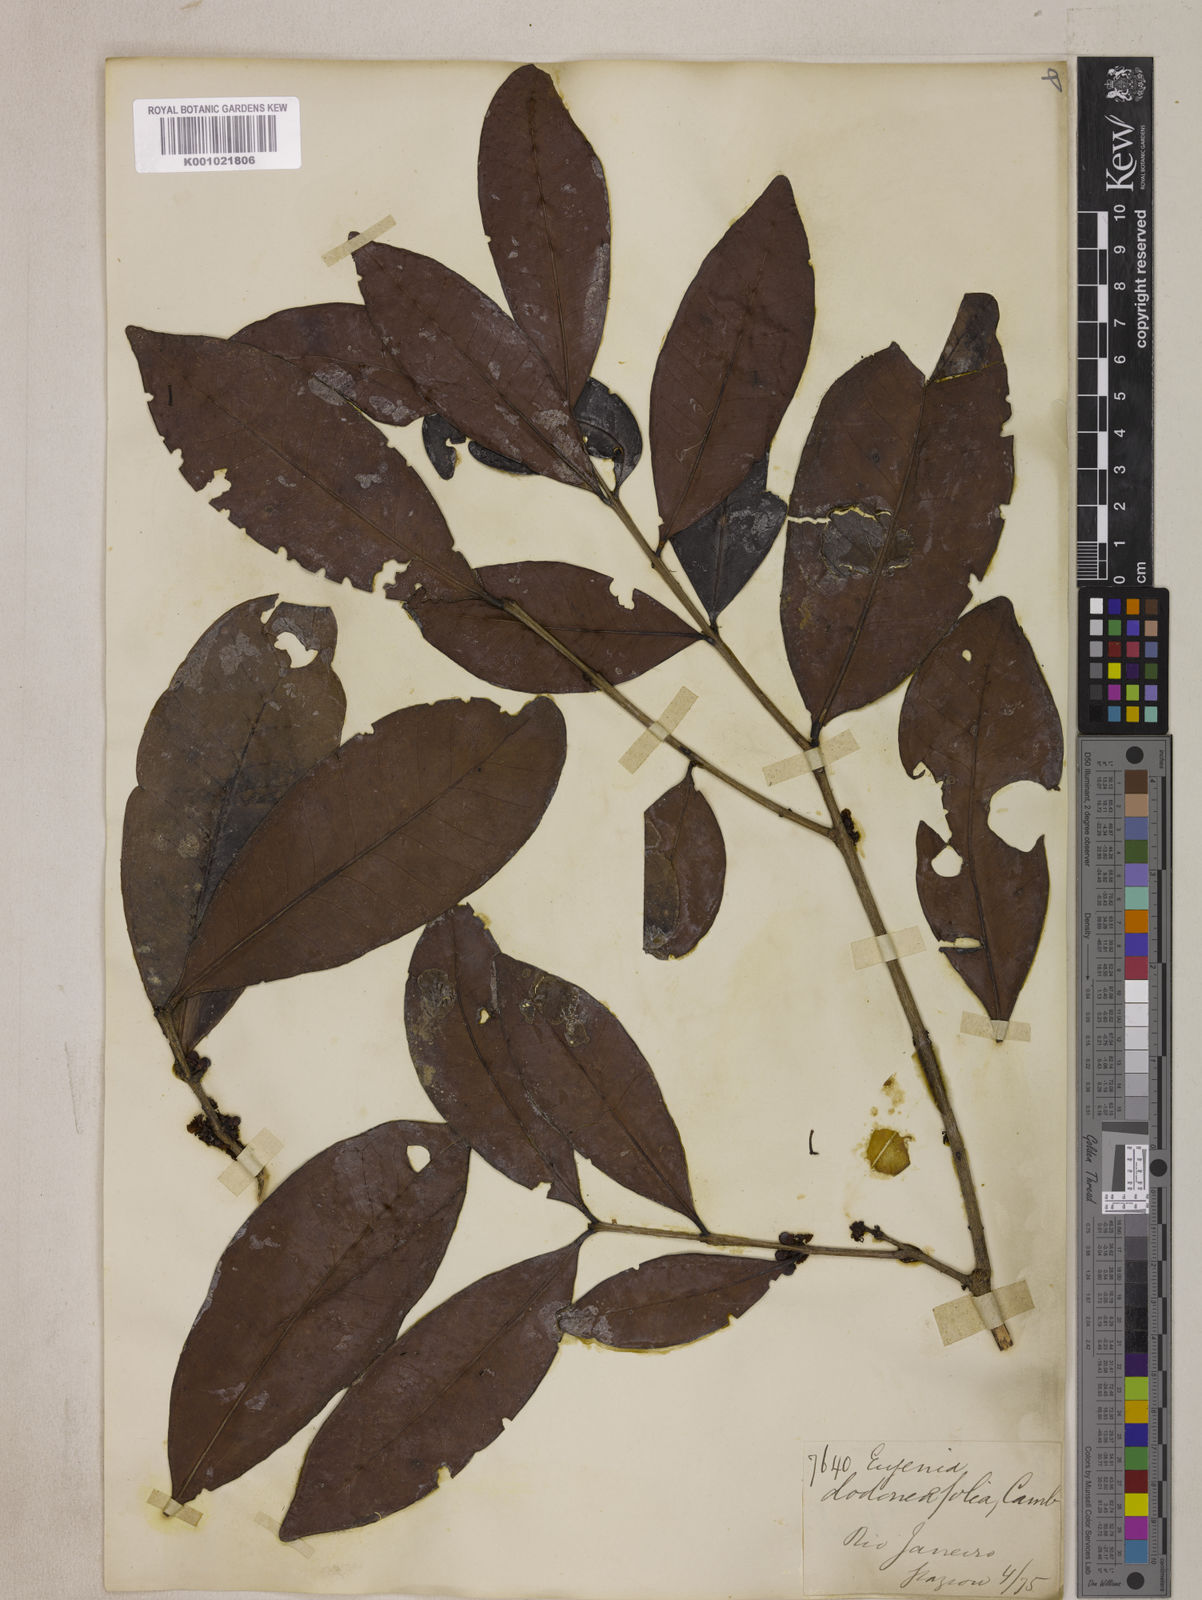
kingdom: Plantae
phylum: Tracheophyta
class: Magnoliopsida
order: Myrtales
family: Myrtaceae
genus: Eugenia
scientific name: Eugenia dodonaeifolia
